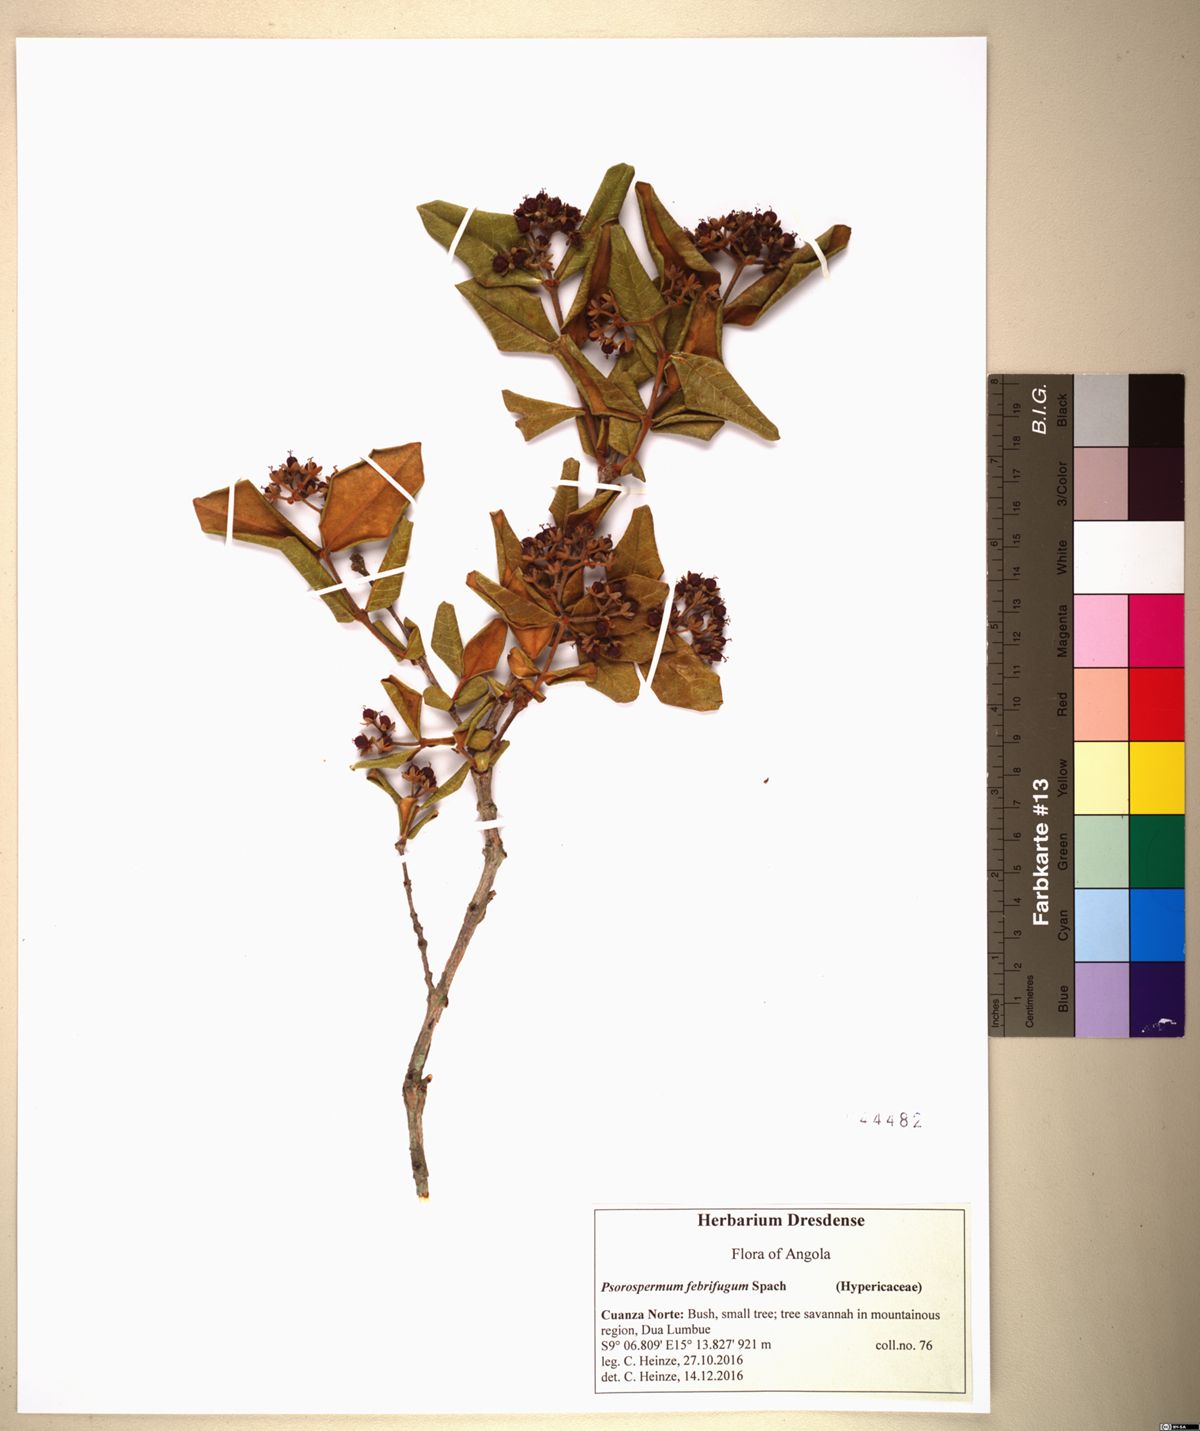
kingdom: Plantae
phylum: Tracheophyta
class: Magnoliopsida
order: Malpighiales
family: Hypericaceae
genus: Psorospermum
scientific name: Psorospermum febrifugum
